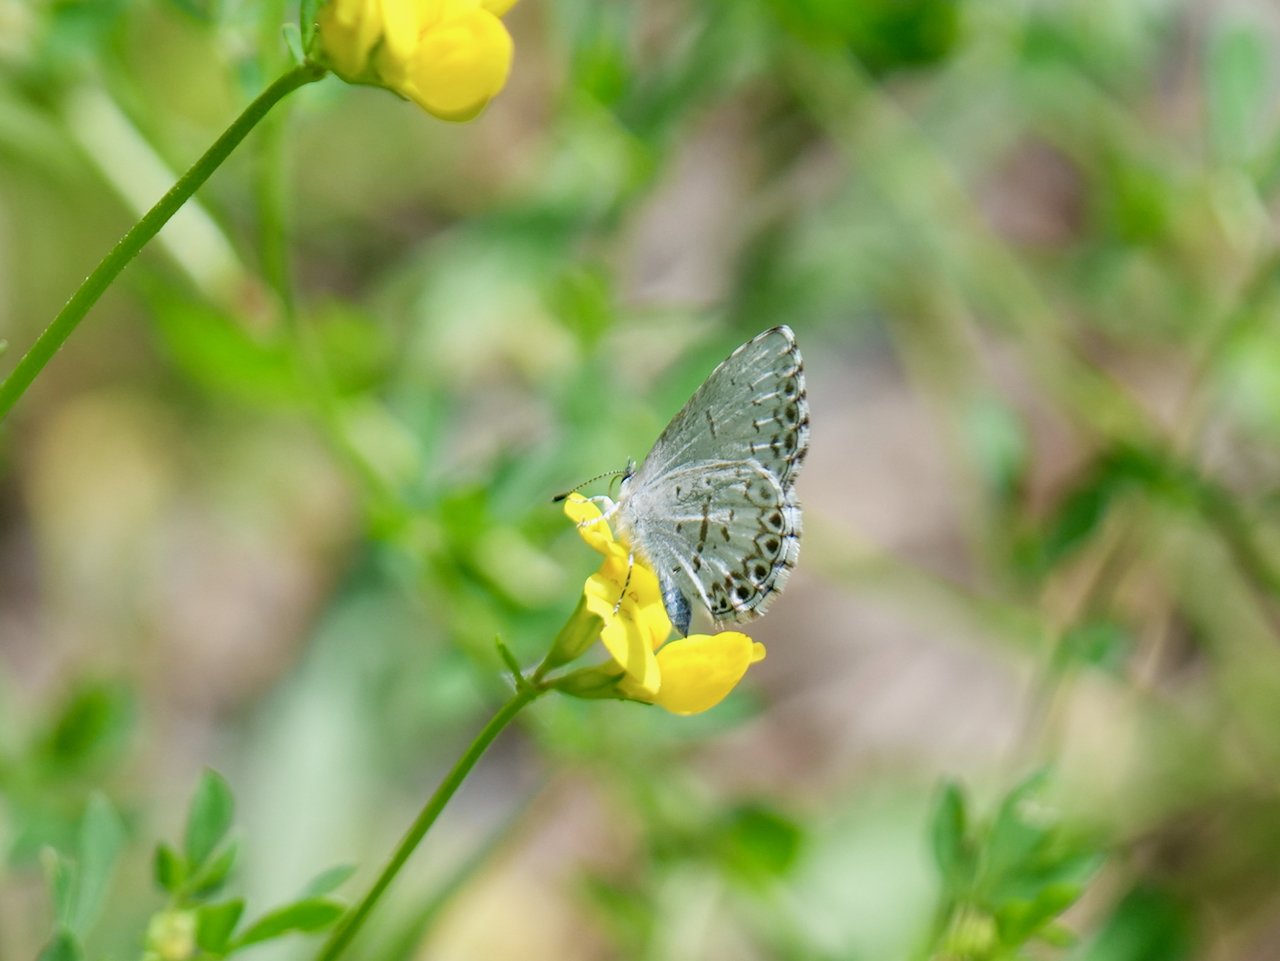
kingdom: Animalia
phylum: Arthropoda
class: Insecta
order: Lepidoptera
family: Lycaenidae
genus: Celastrina
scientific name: Celastrina lucia
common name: Northern Spring Azure
